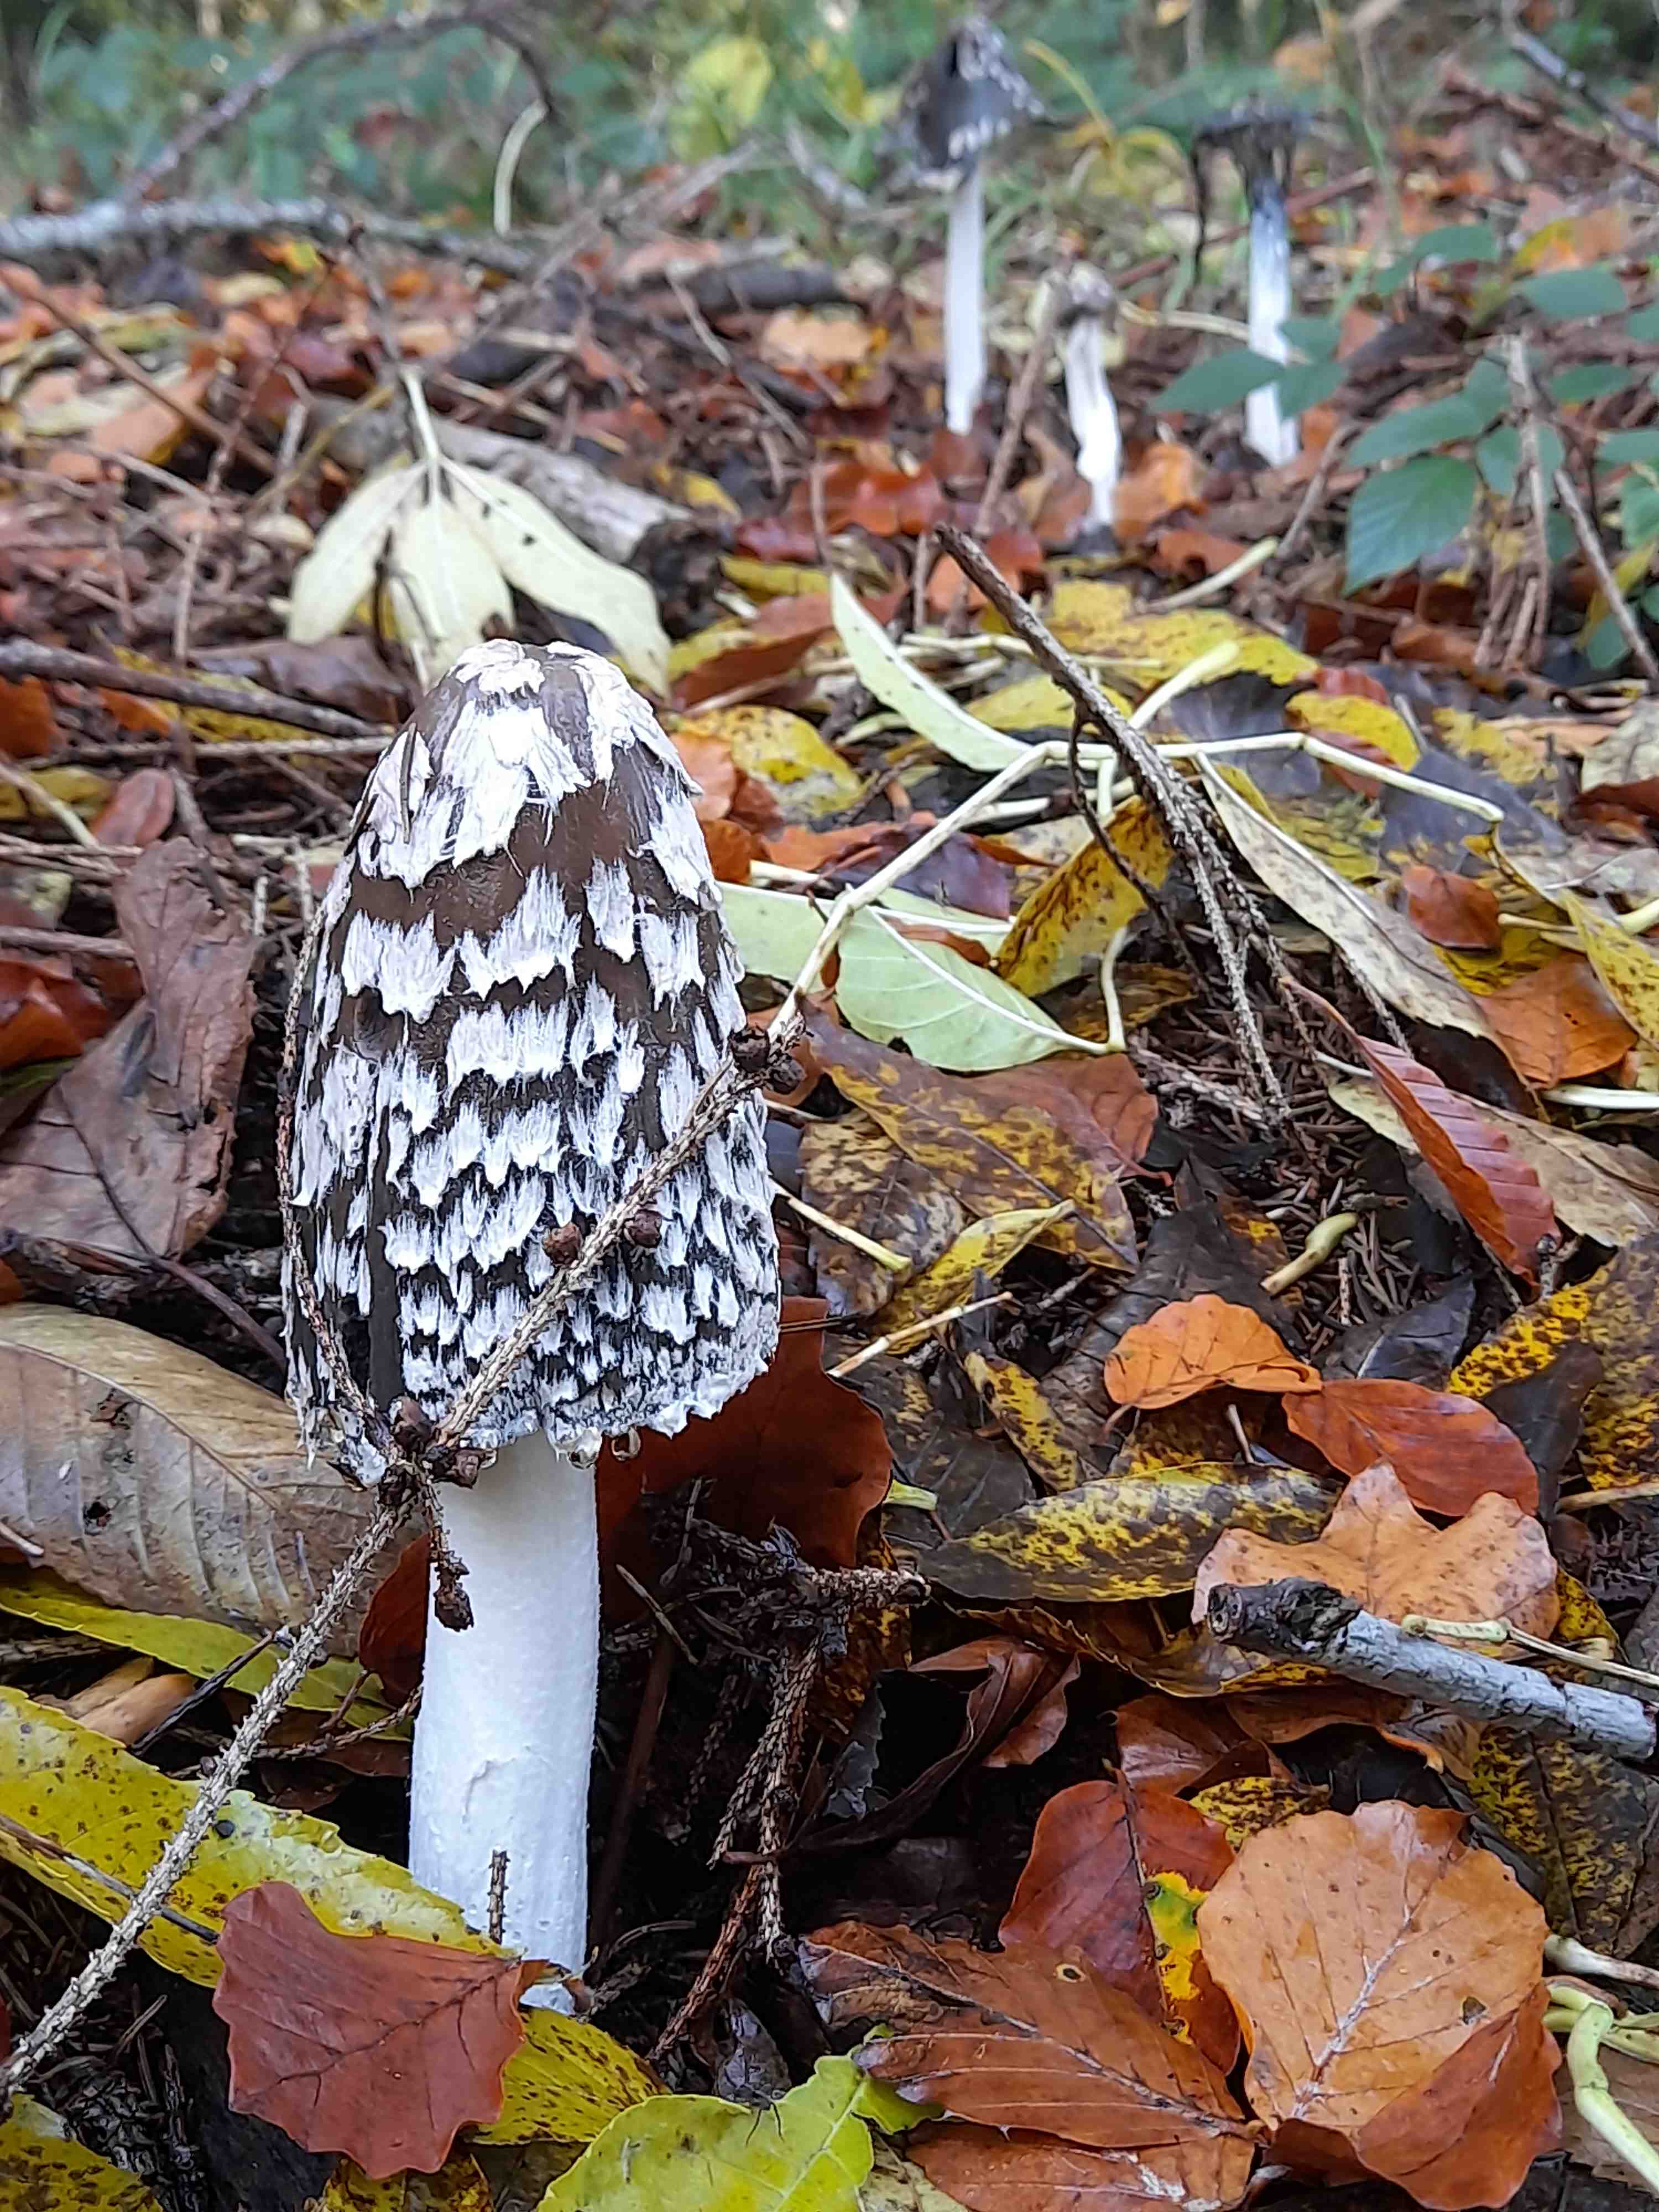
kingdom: Fungi
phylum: Basidiomycota
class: Agaricomycetes
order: Agaricales
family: Psathyrellaceae
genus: Coprinopsis
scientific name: Coprinopsis picacea
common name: skade-blækhat
